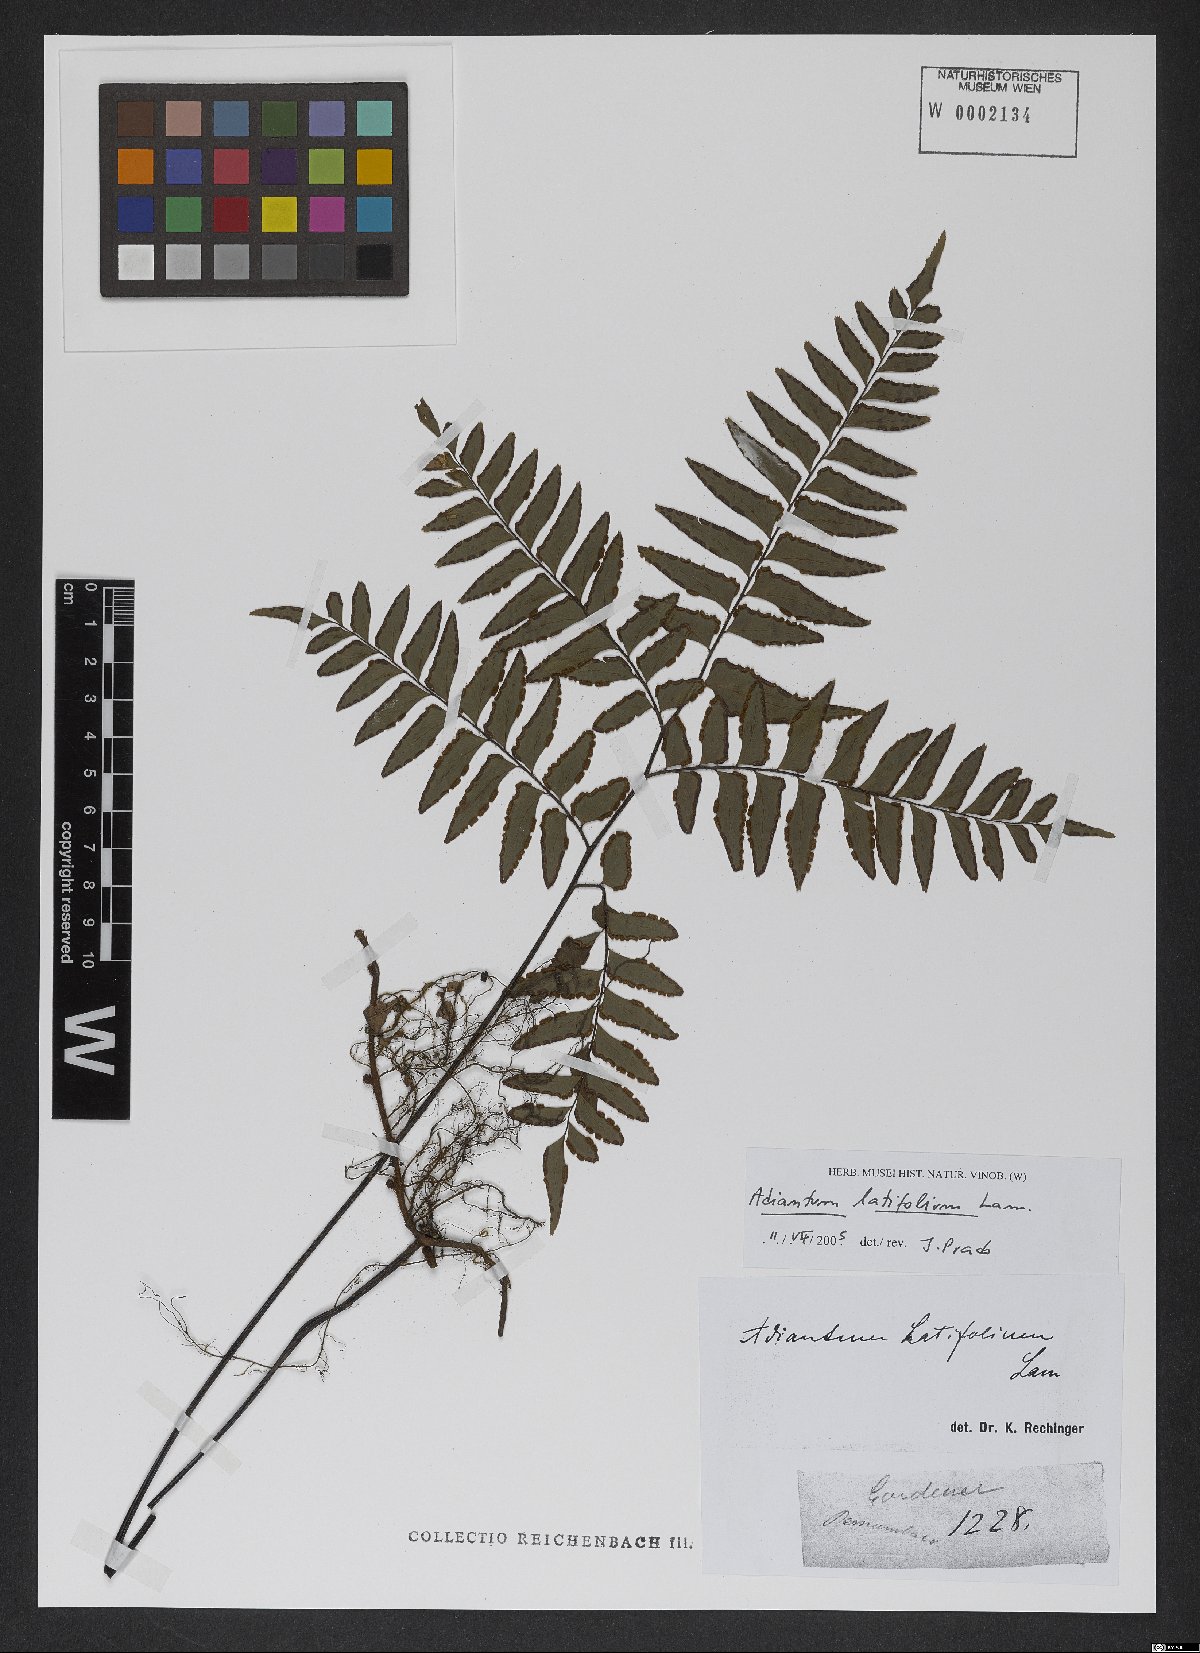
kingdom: Plantae
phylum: Tracheophyta
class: Polypodiopsida
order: Polypodiales
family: Pteridaceae
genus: Adiantum
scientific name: Adiantum latifolium
